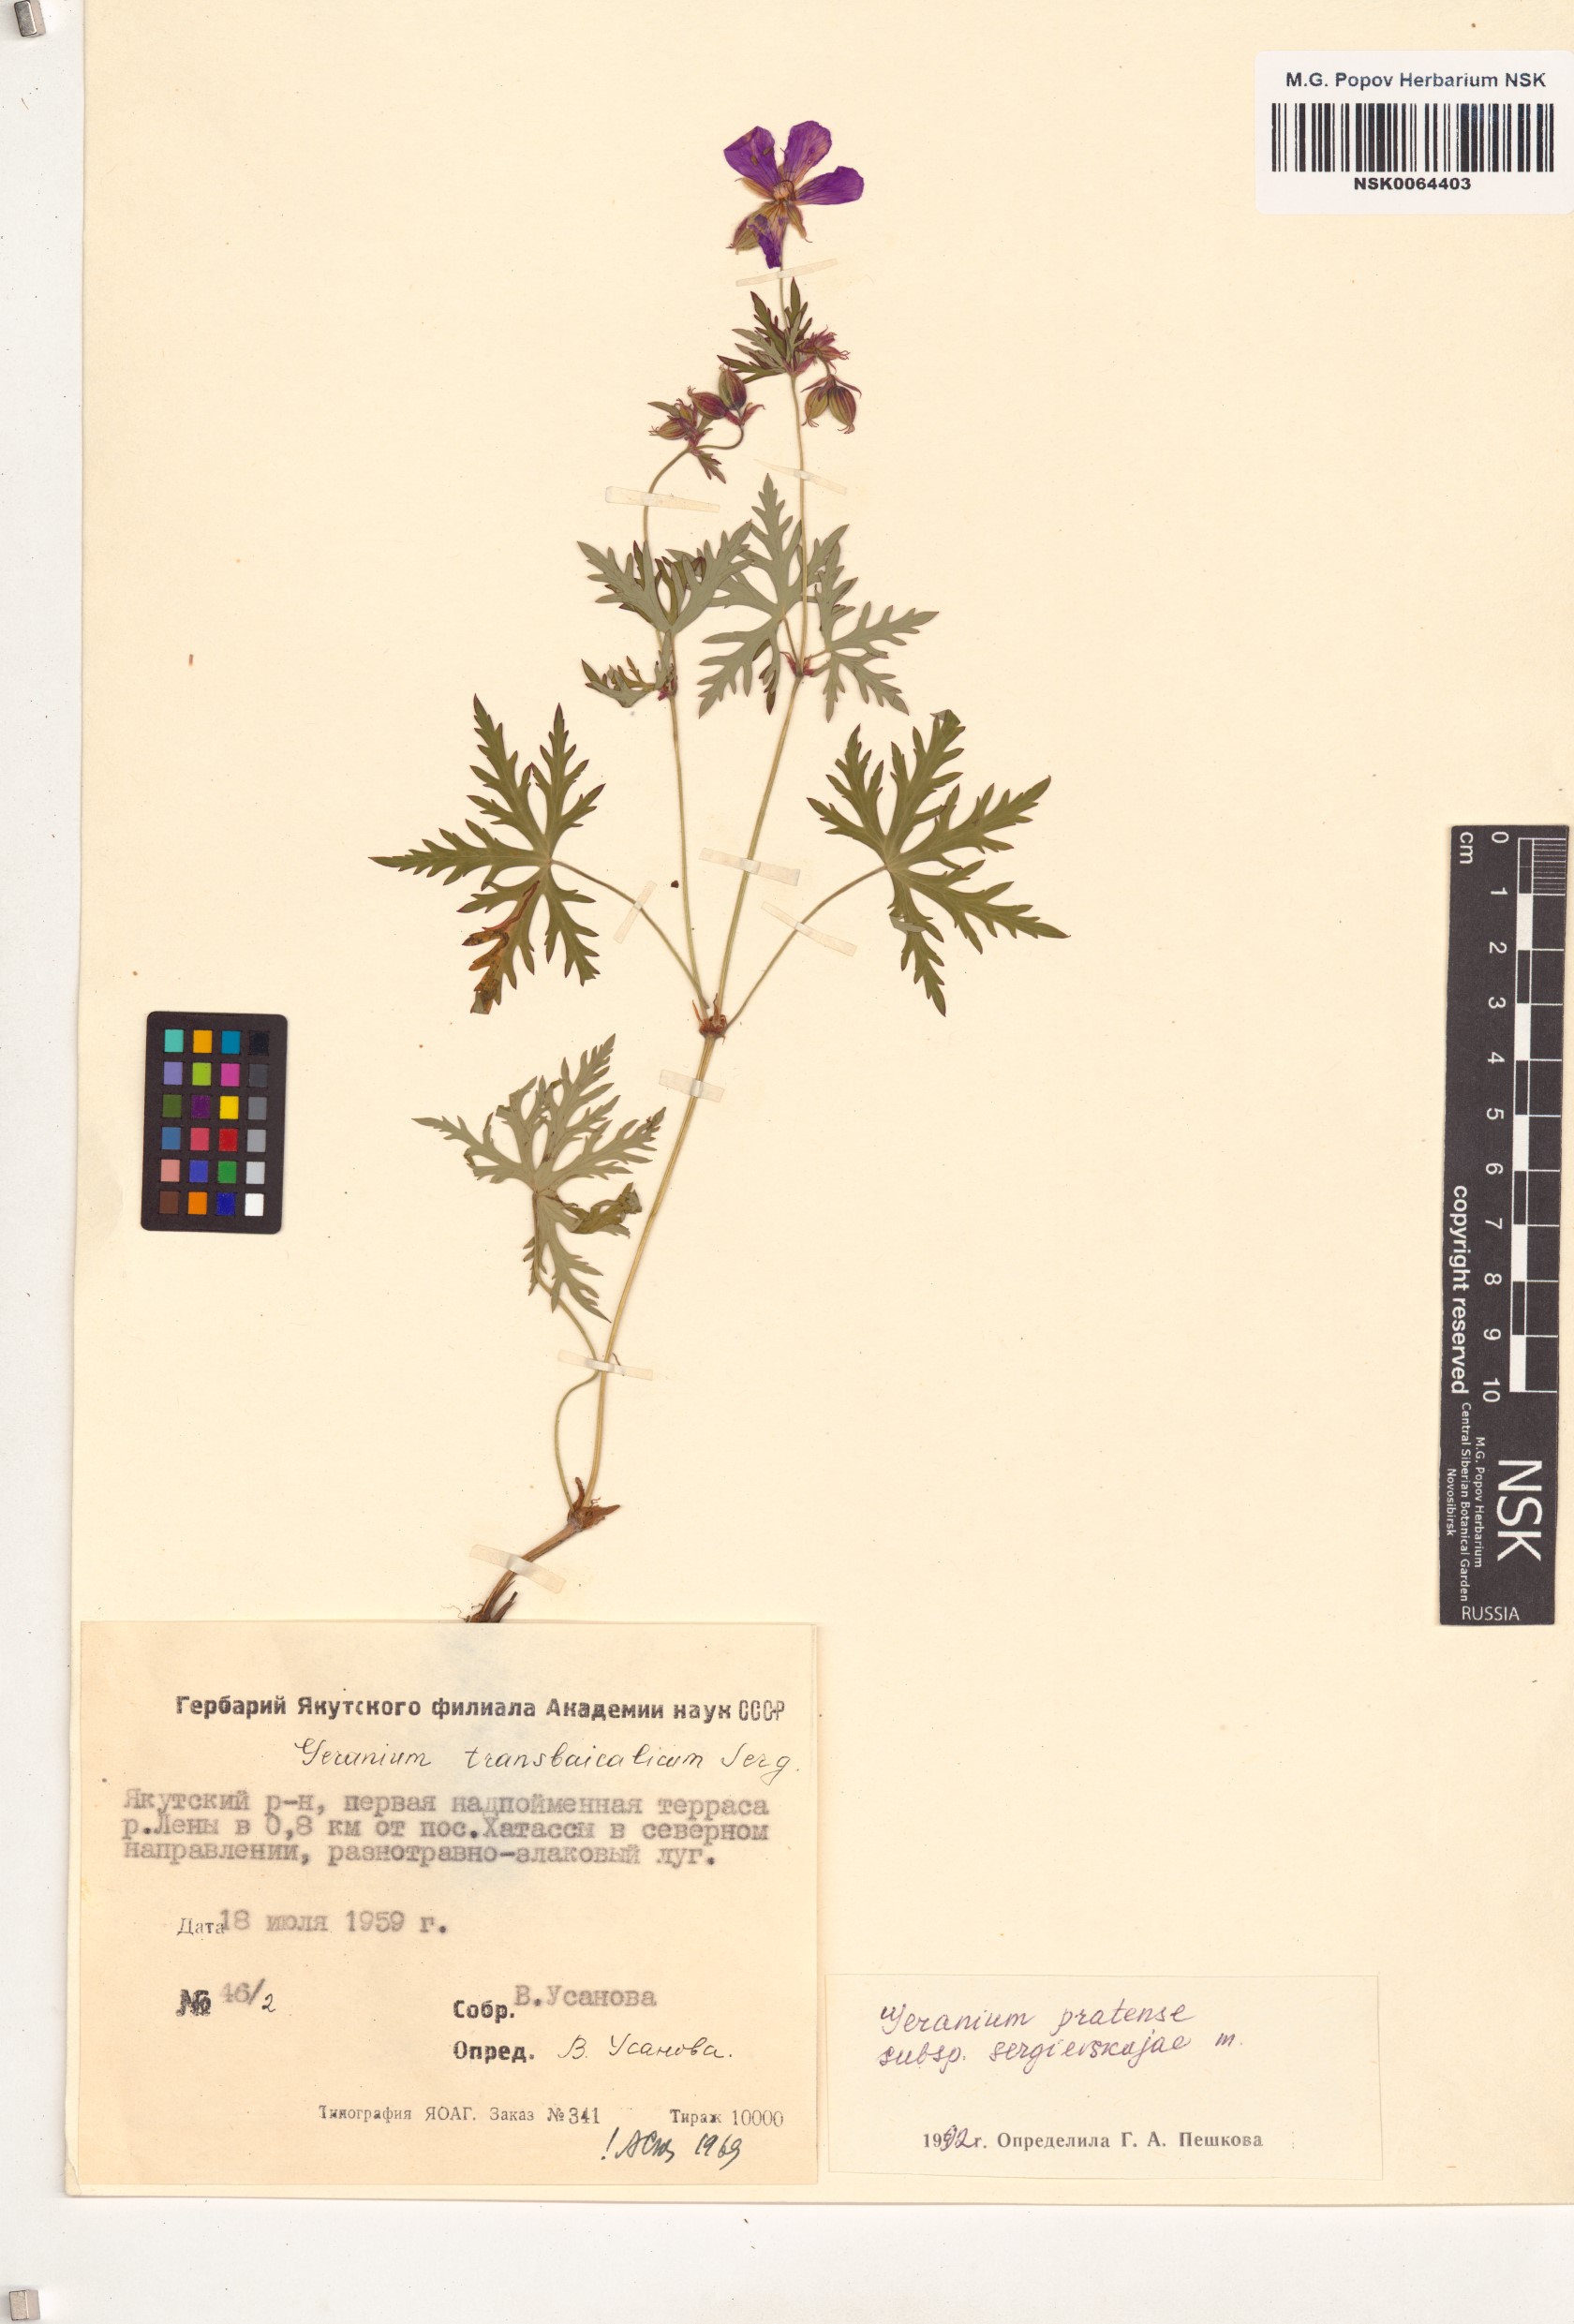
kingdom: Plantae
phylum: Tracheophyta
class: Magnoliopsida
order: Geraniales
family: Geraniaceae
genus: Geranium
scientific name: Geranium pratense
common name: Meadow crane's-bill
